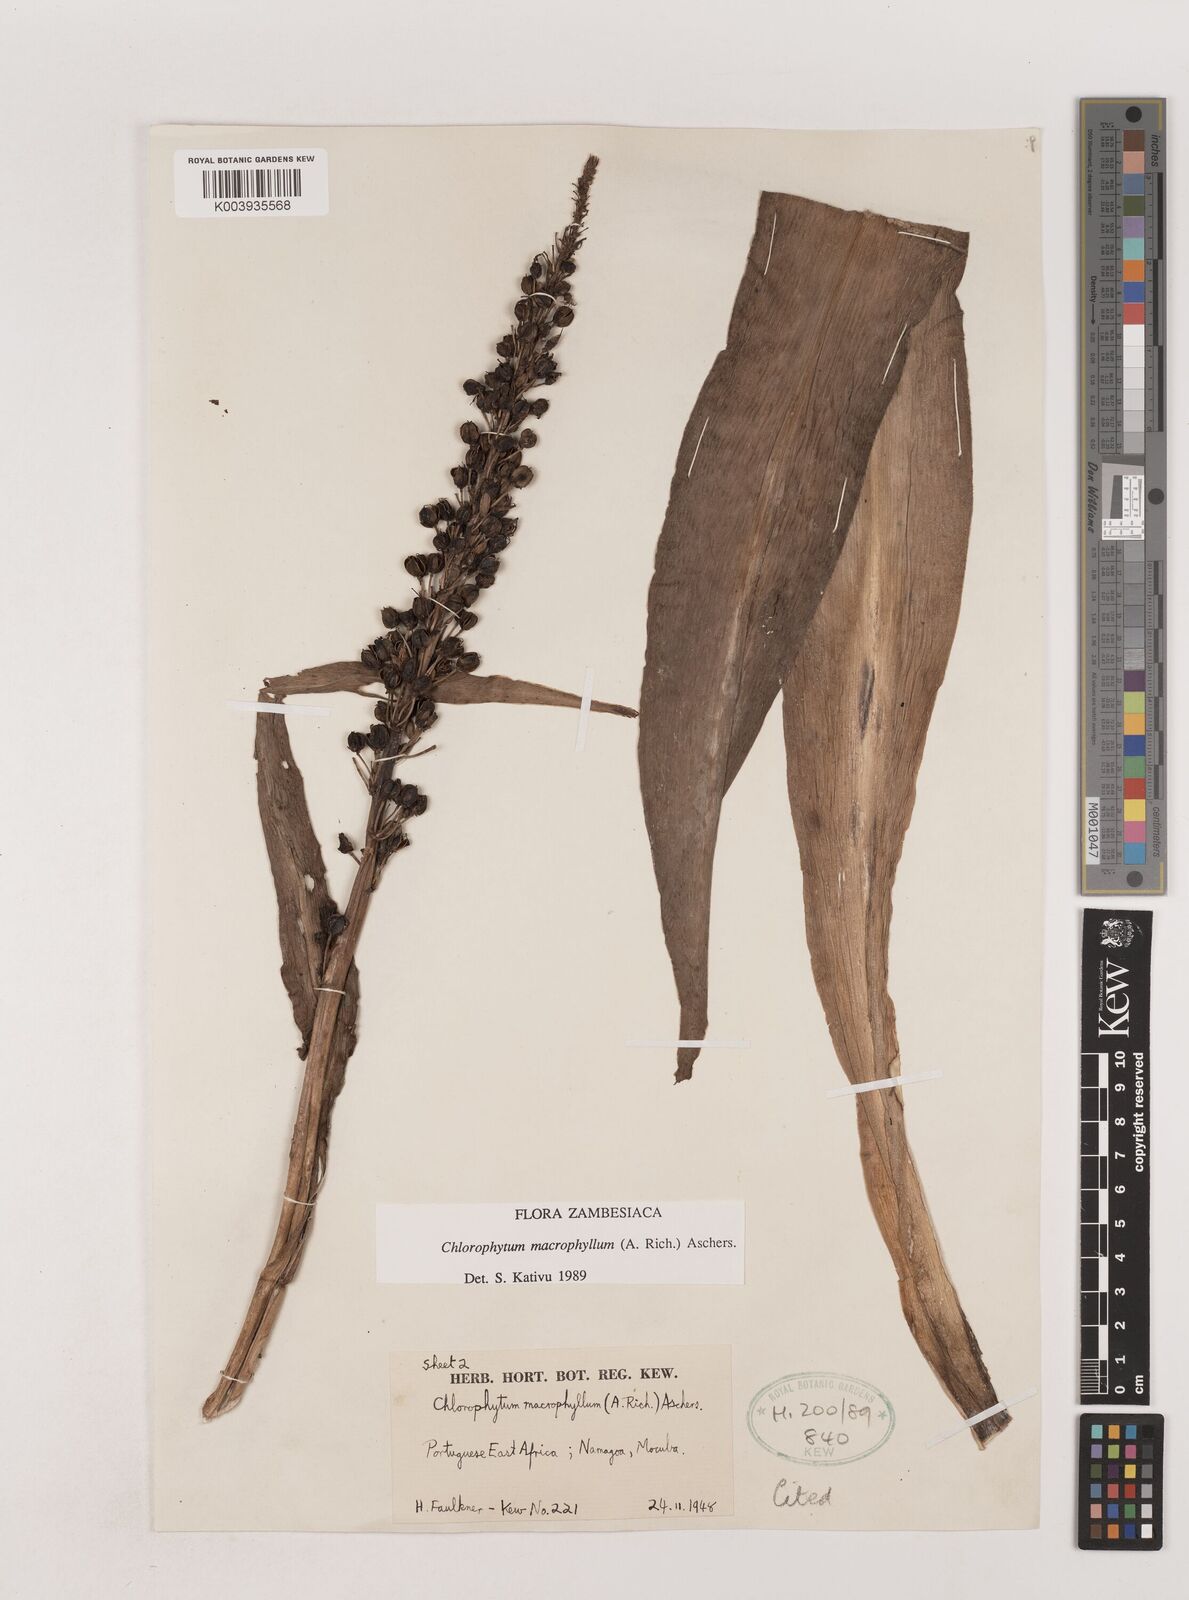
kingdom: Plantae
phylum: Tracheophyta
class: Liliopsida
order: Asparagales
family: Asparagaceae
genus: Chlorophytum
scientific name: Chlorophytum macrophyllum
